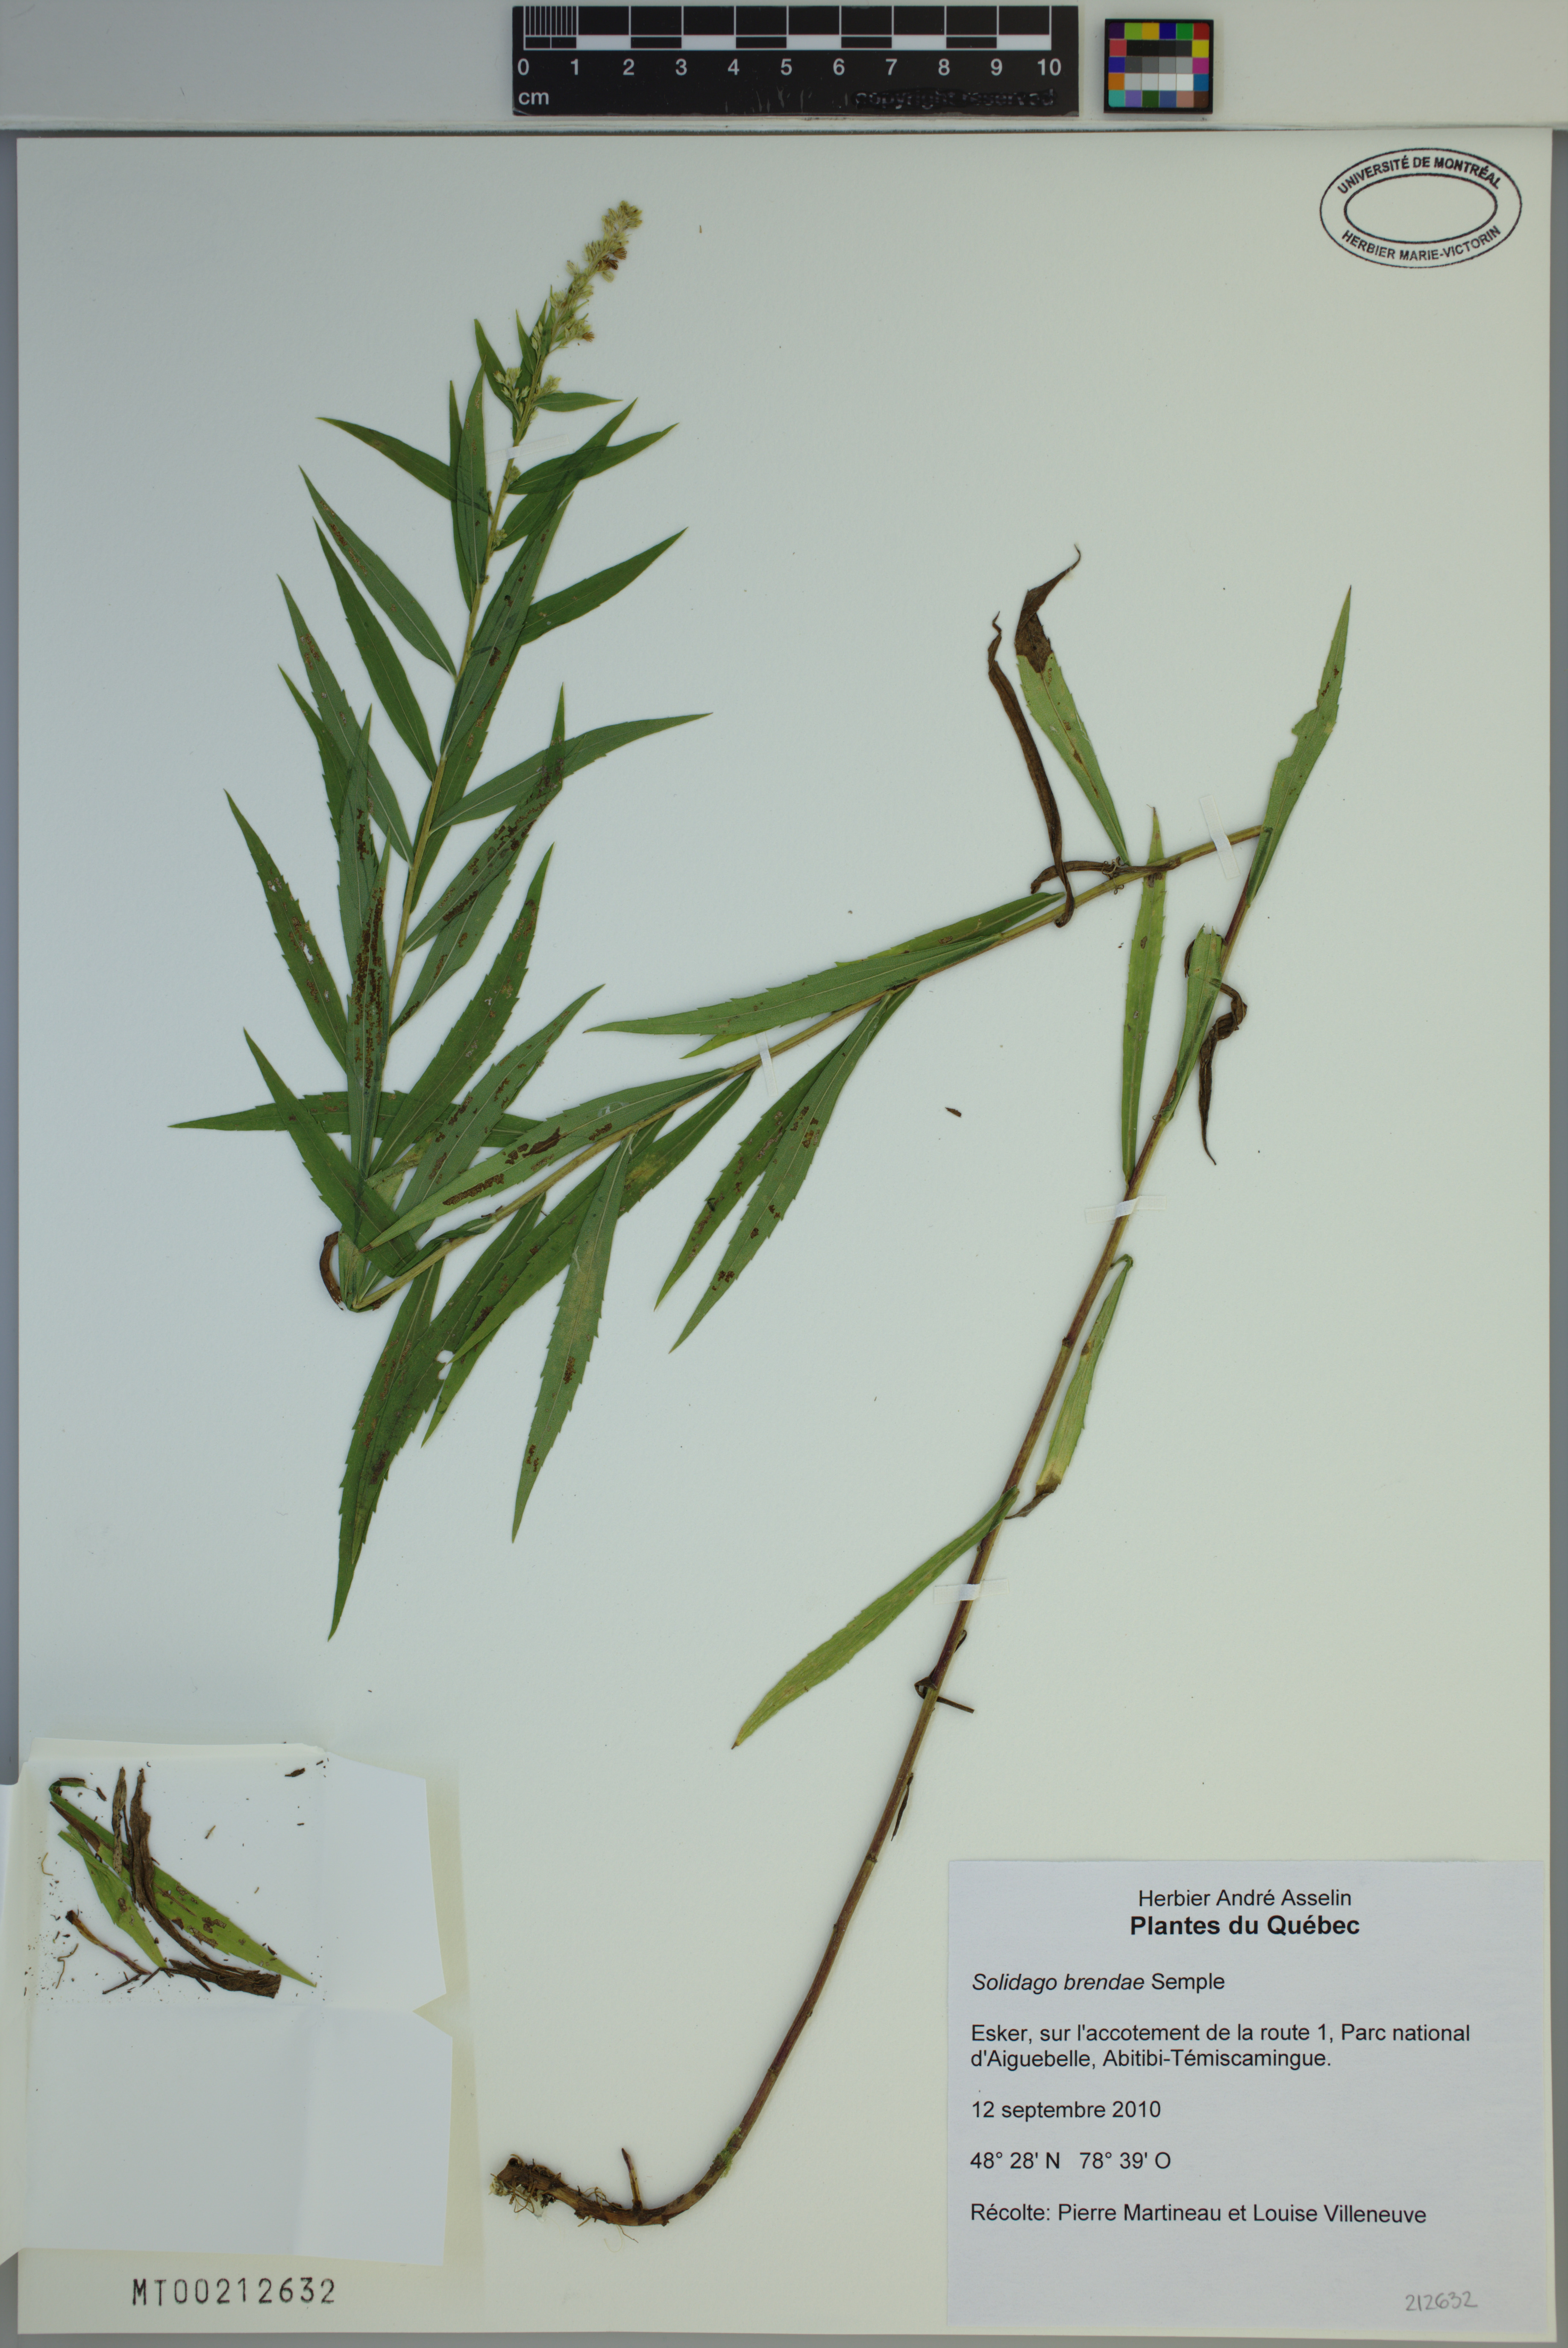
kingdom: Plantae
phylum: Tracheophyta
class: Magnoliopsida
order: Asterales
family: Asteraceae
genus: Solidago
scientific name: Solidago brendae
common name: Brenda's goldenrod
